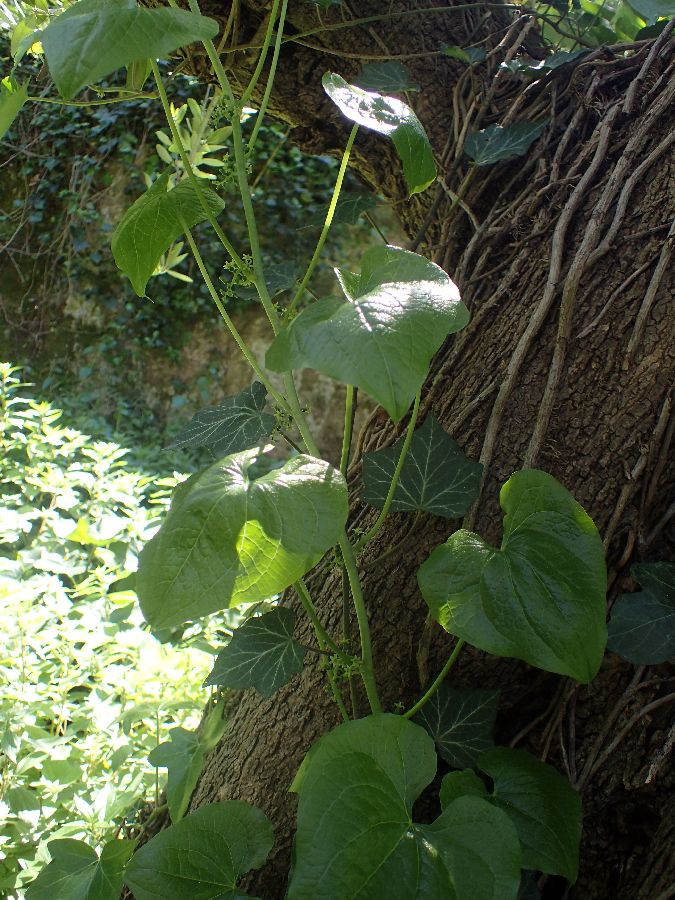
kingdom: Plantae
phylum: Tracheophyta
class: Liliopsida
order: Dioscoreales
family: Dioscoreaceae
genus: Dioscorea
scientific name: Dioscorea communis
